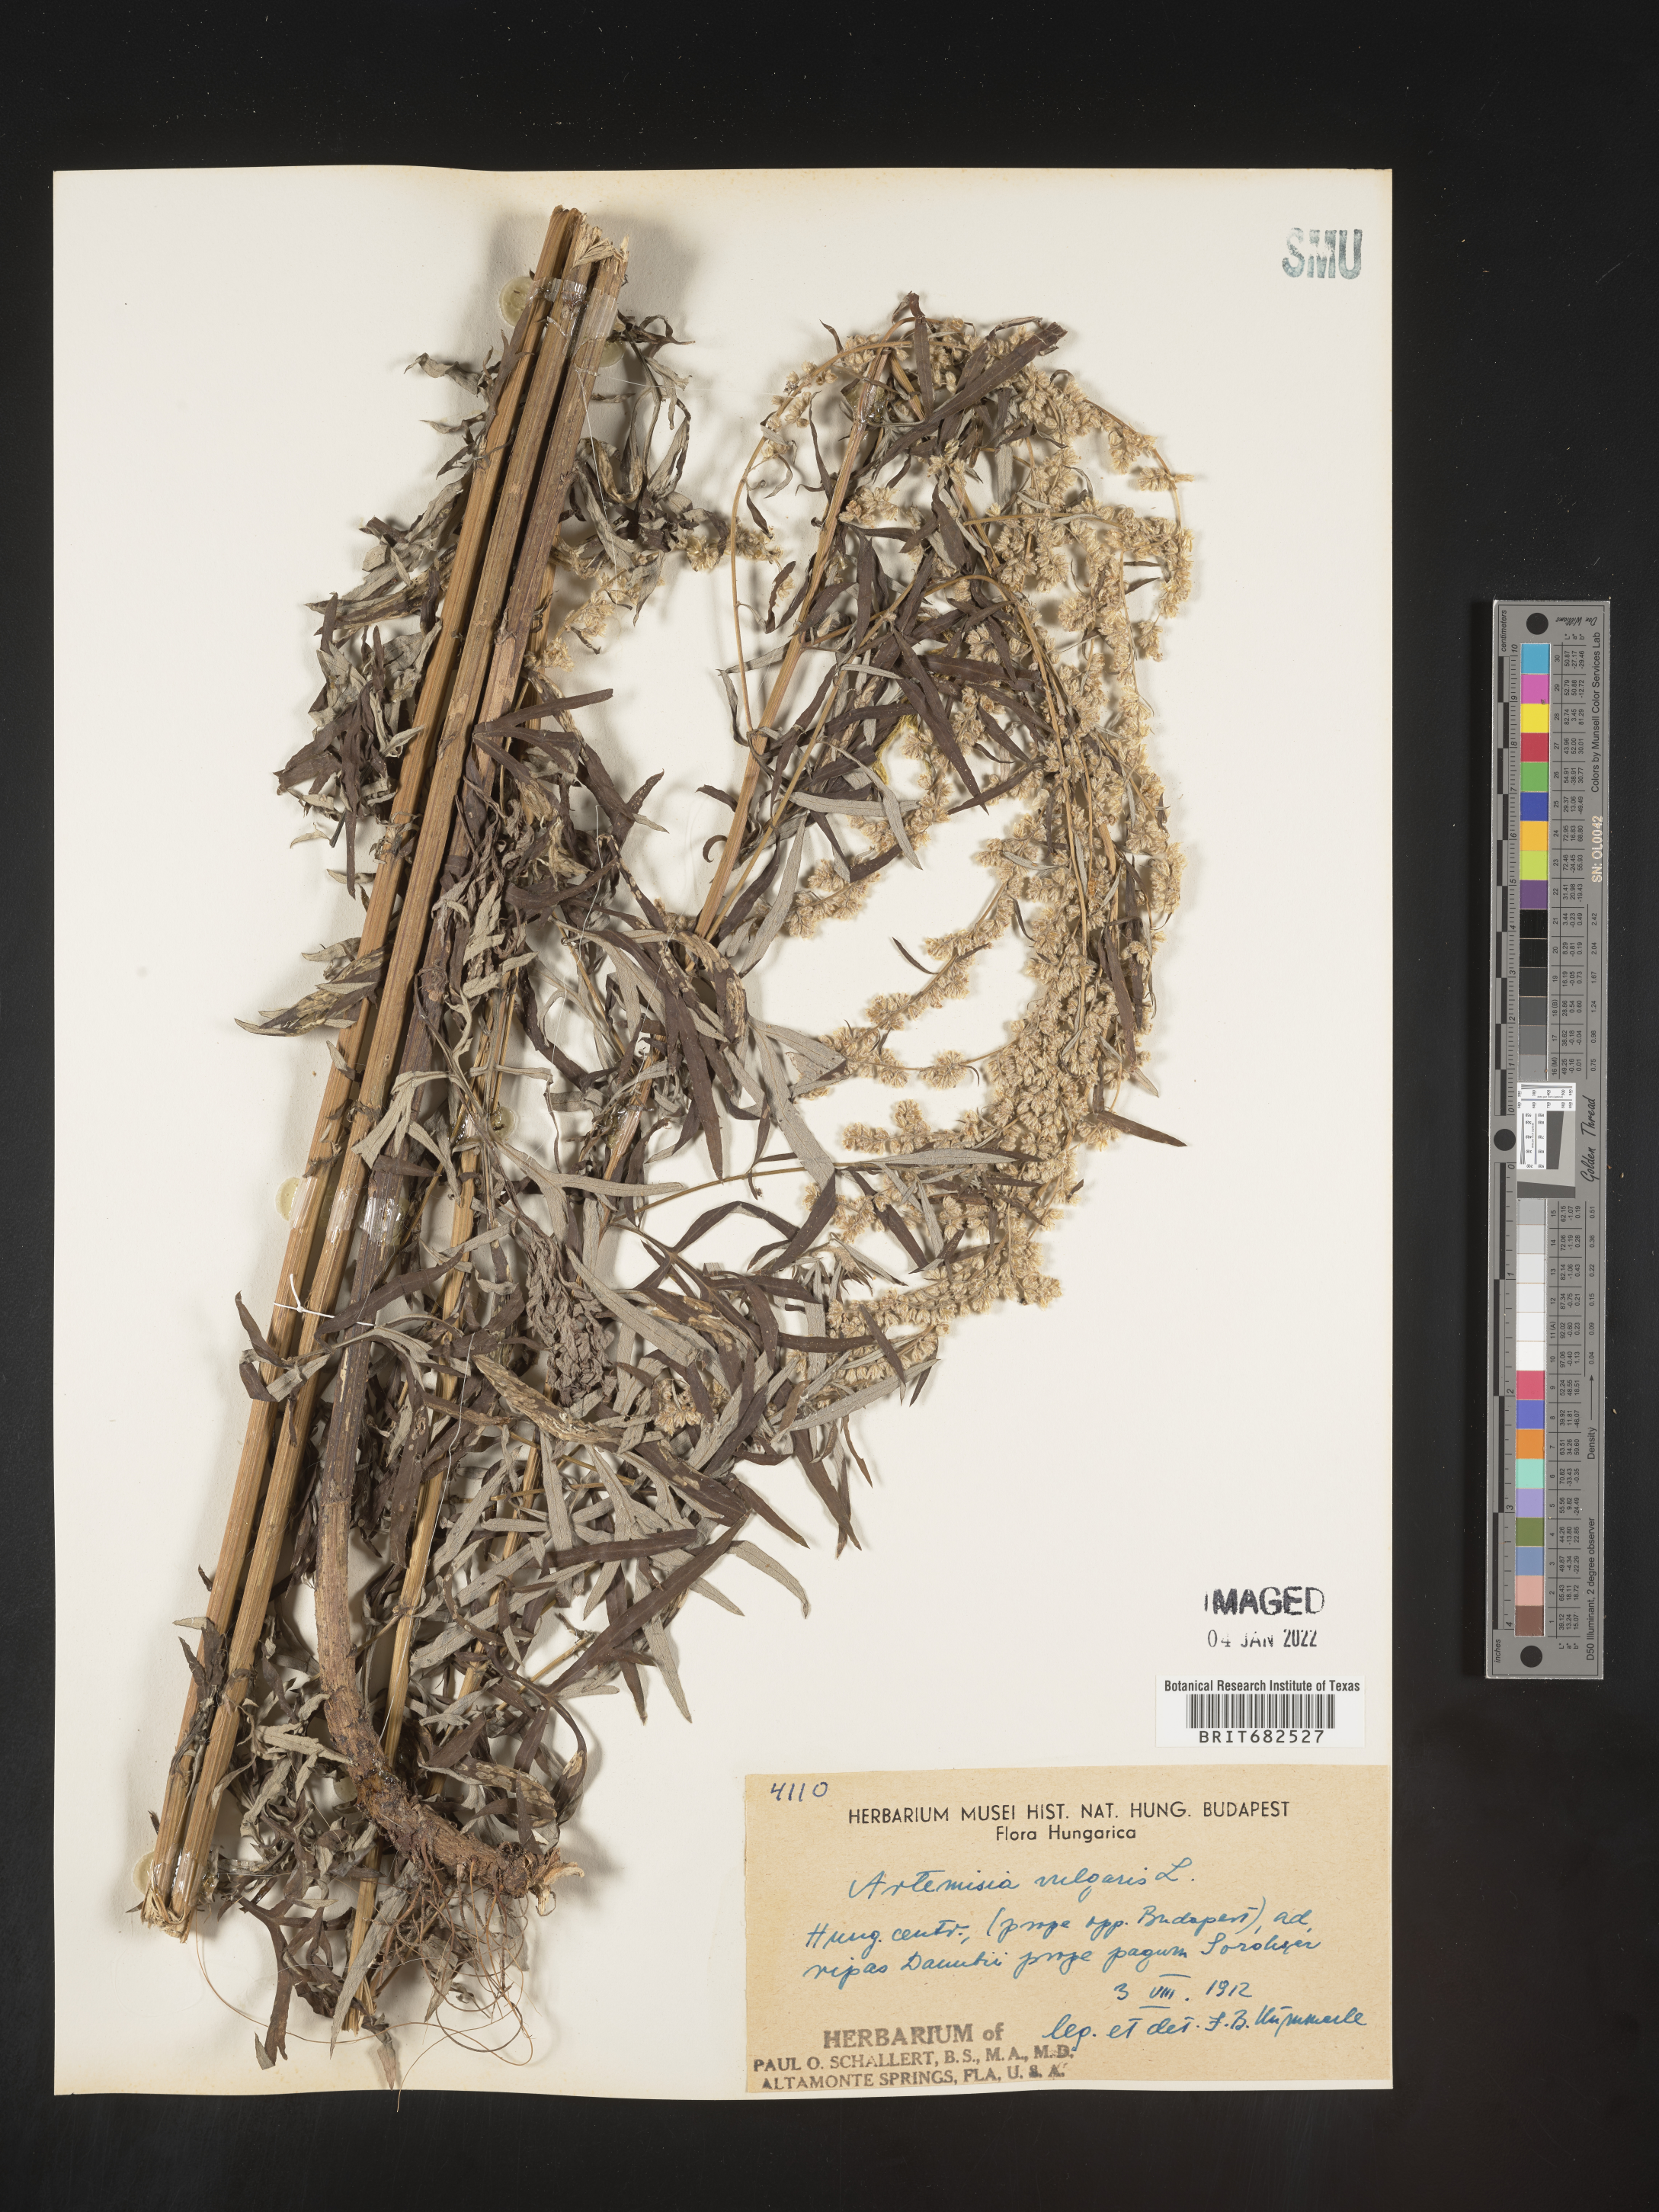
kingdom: Plantae
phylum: Tracheophyta
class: Magnoliopsida
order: Asterales
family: Asteraceae
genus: Artemisia
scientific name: Artemisia
